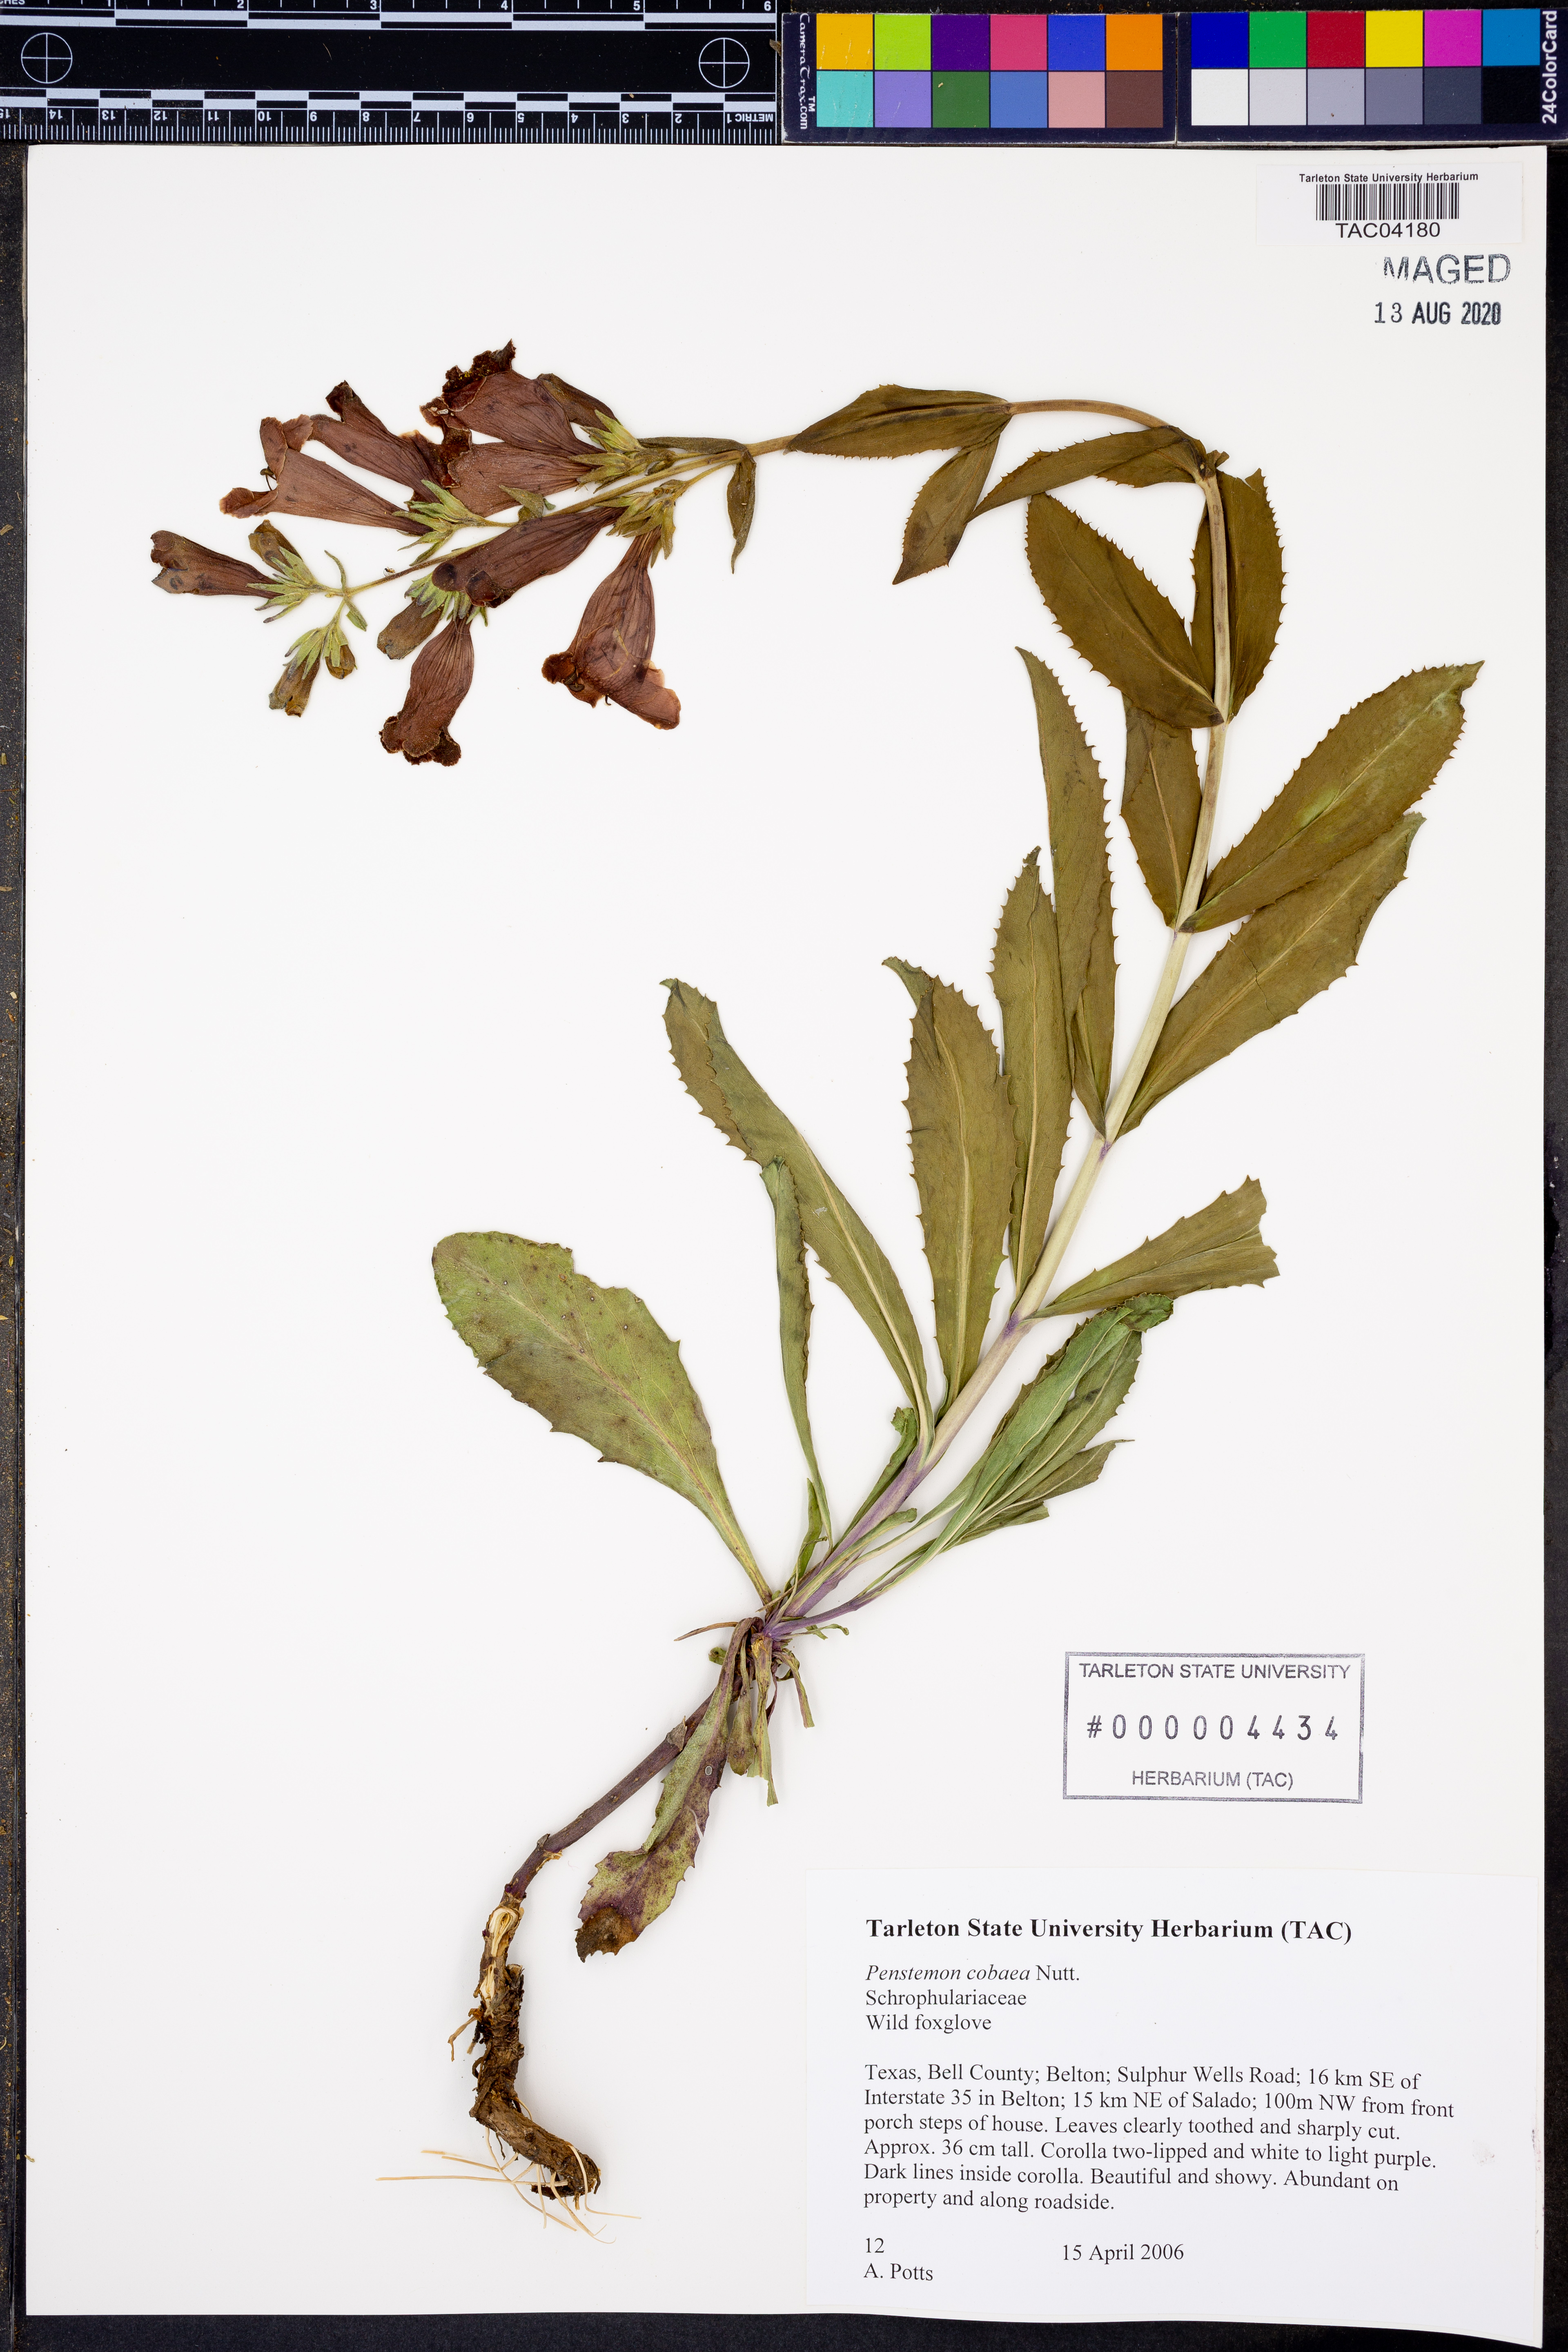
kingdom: Plantae
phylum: Tracheophyta
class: Magnoliopsida
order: Lamiales
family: Plantaginaceae
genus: Penstemon
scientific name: Penstemon cobaea
